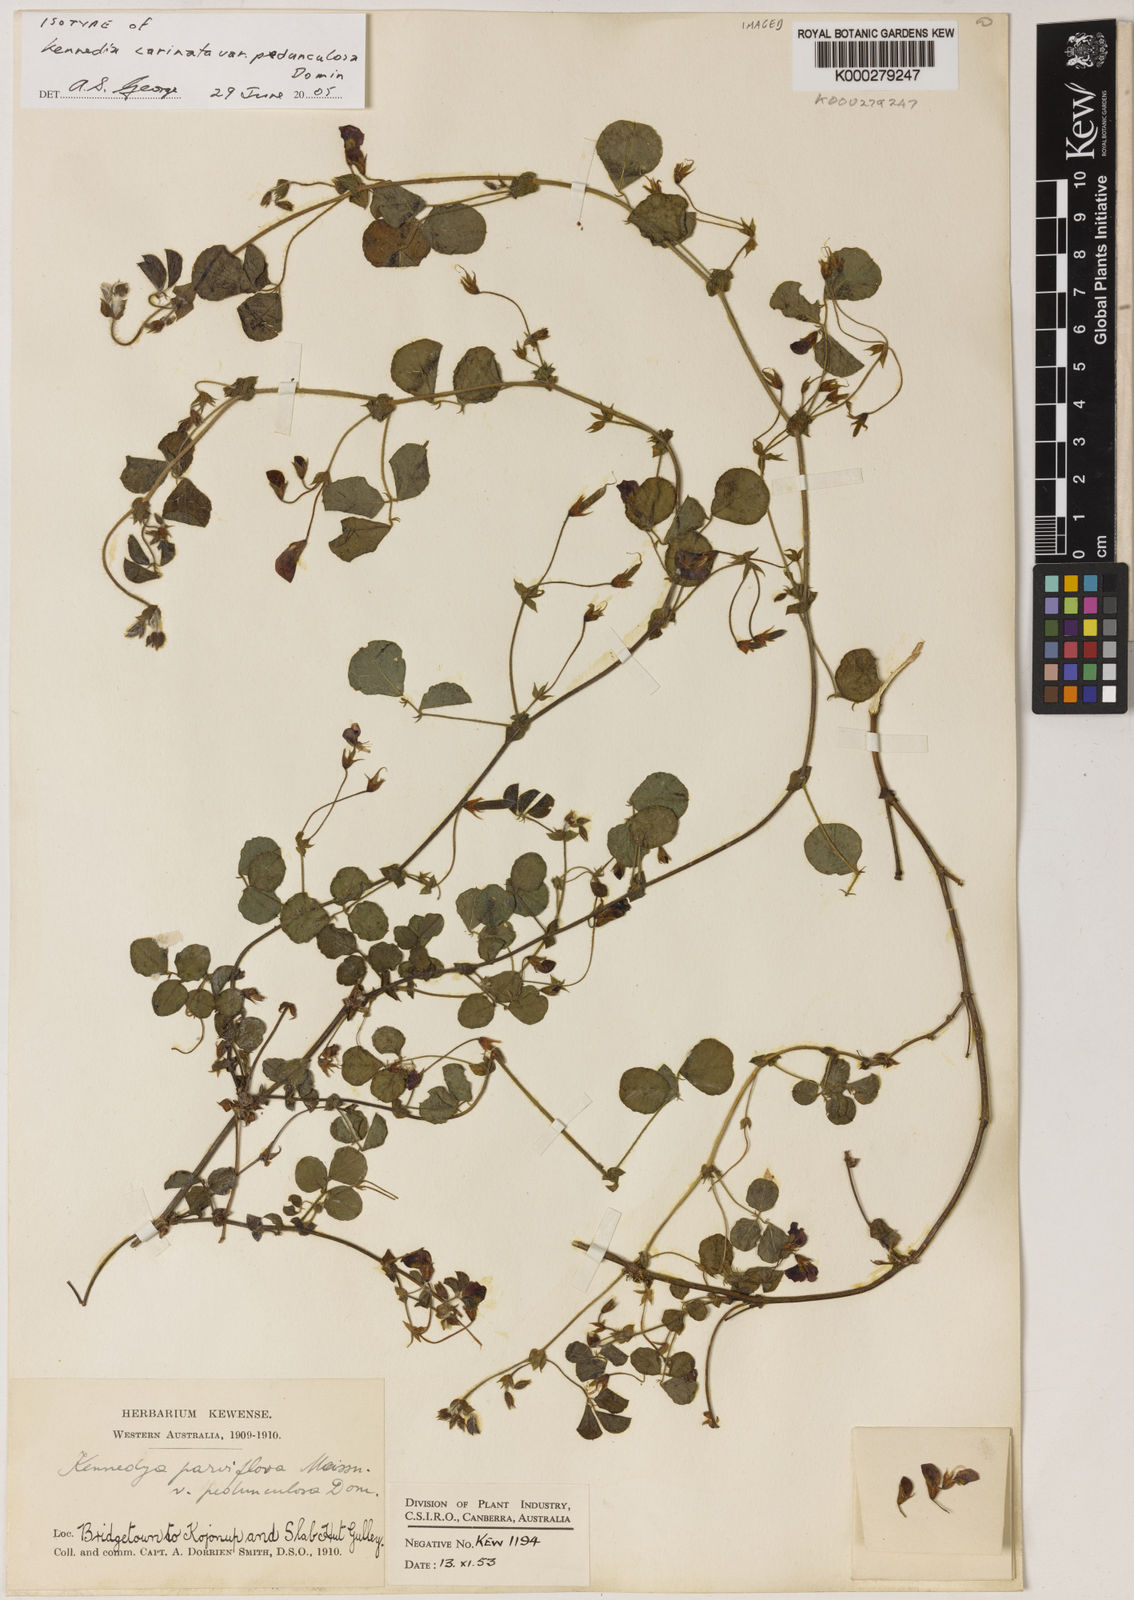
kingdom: Plantae
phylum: Tracheophyta
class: Magnoliopsida
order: Fabales
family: Fabaceae
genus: Kennedia
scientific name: Kennedia carinata
